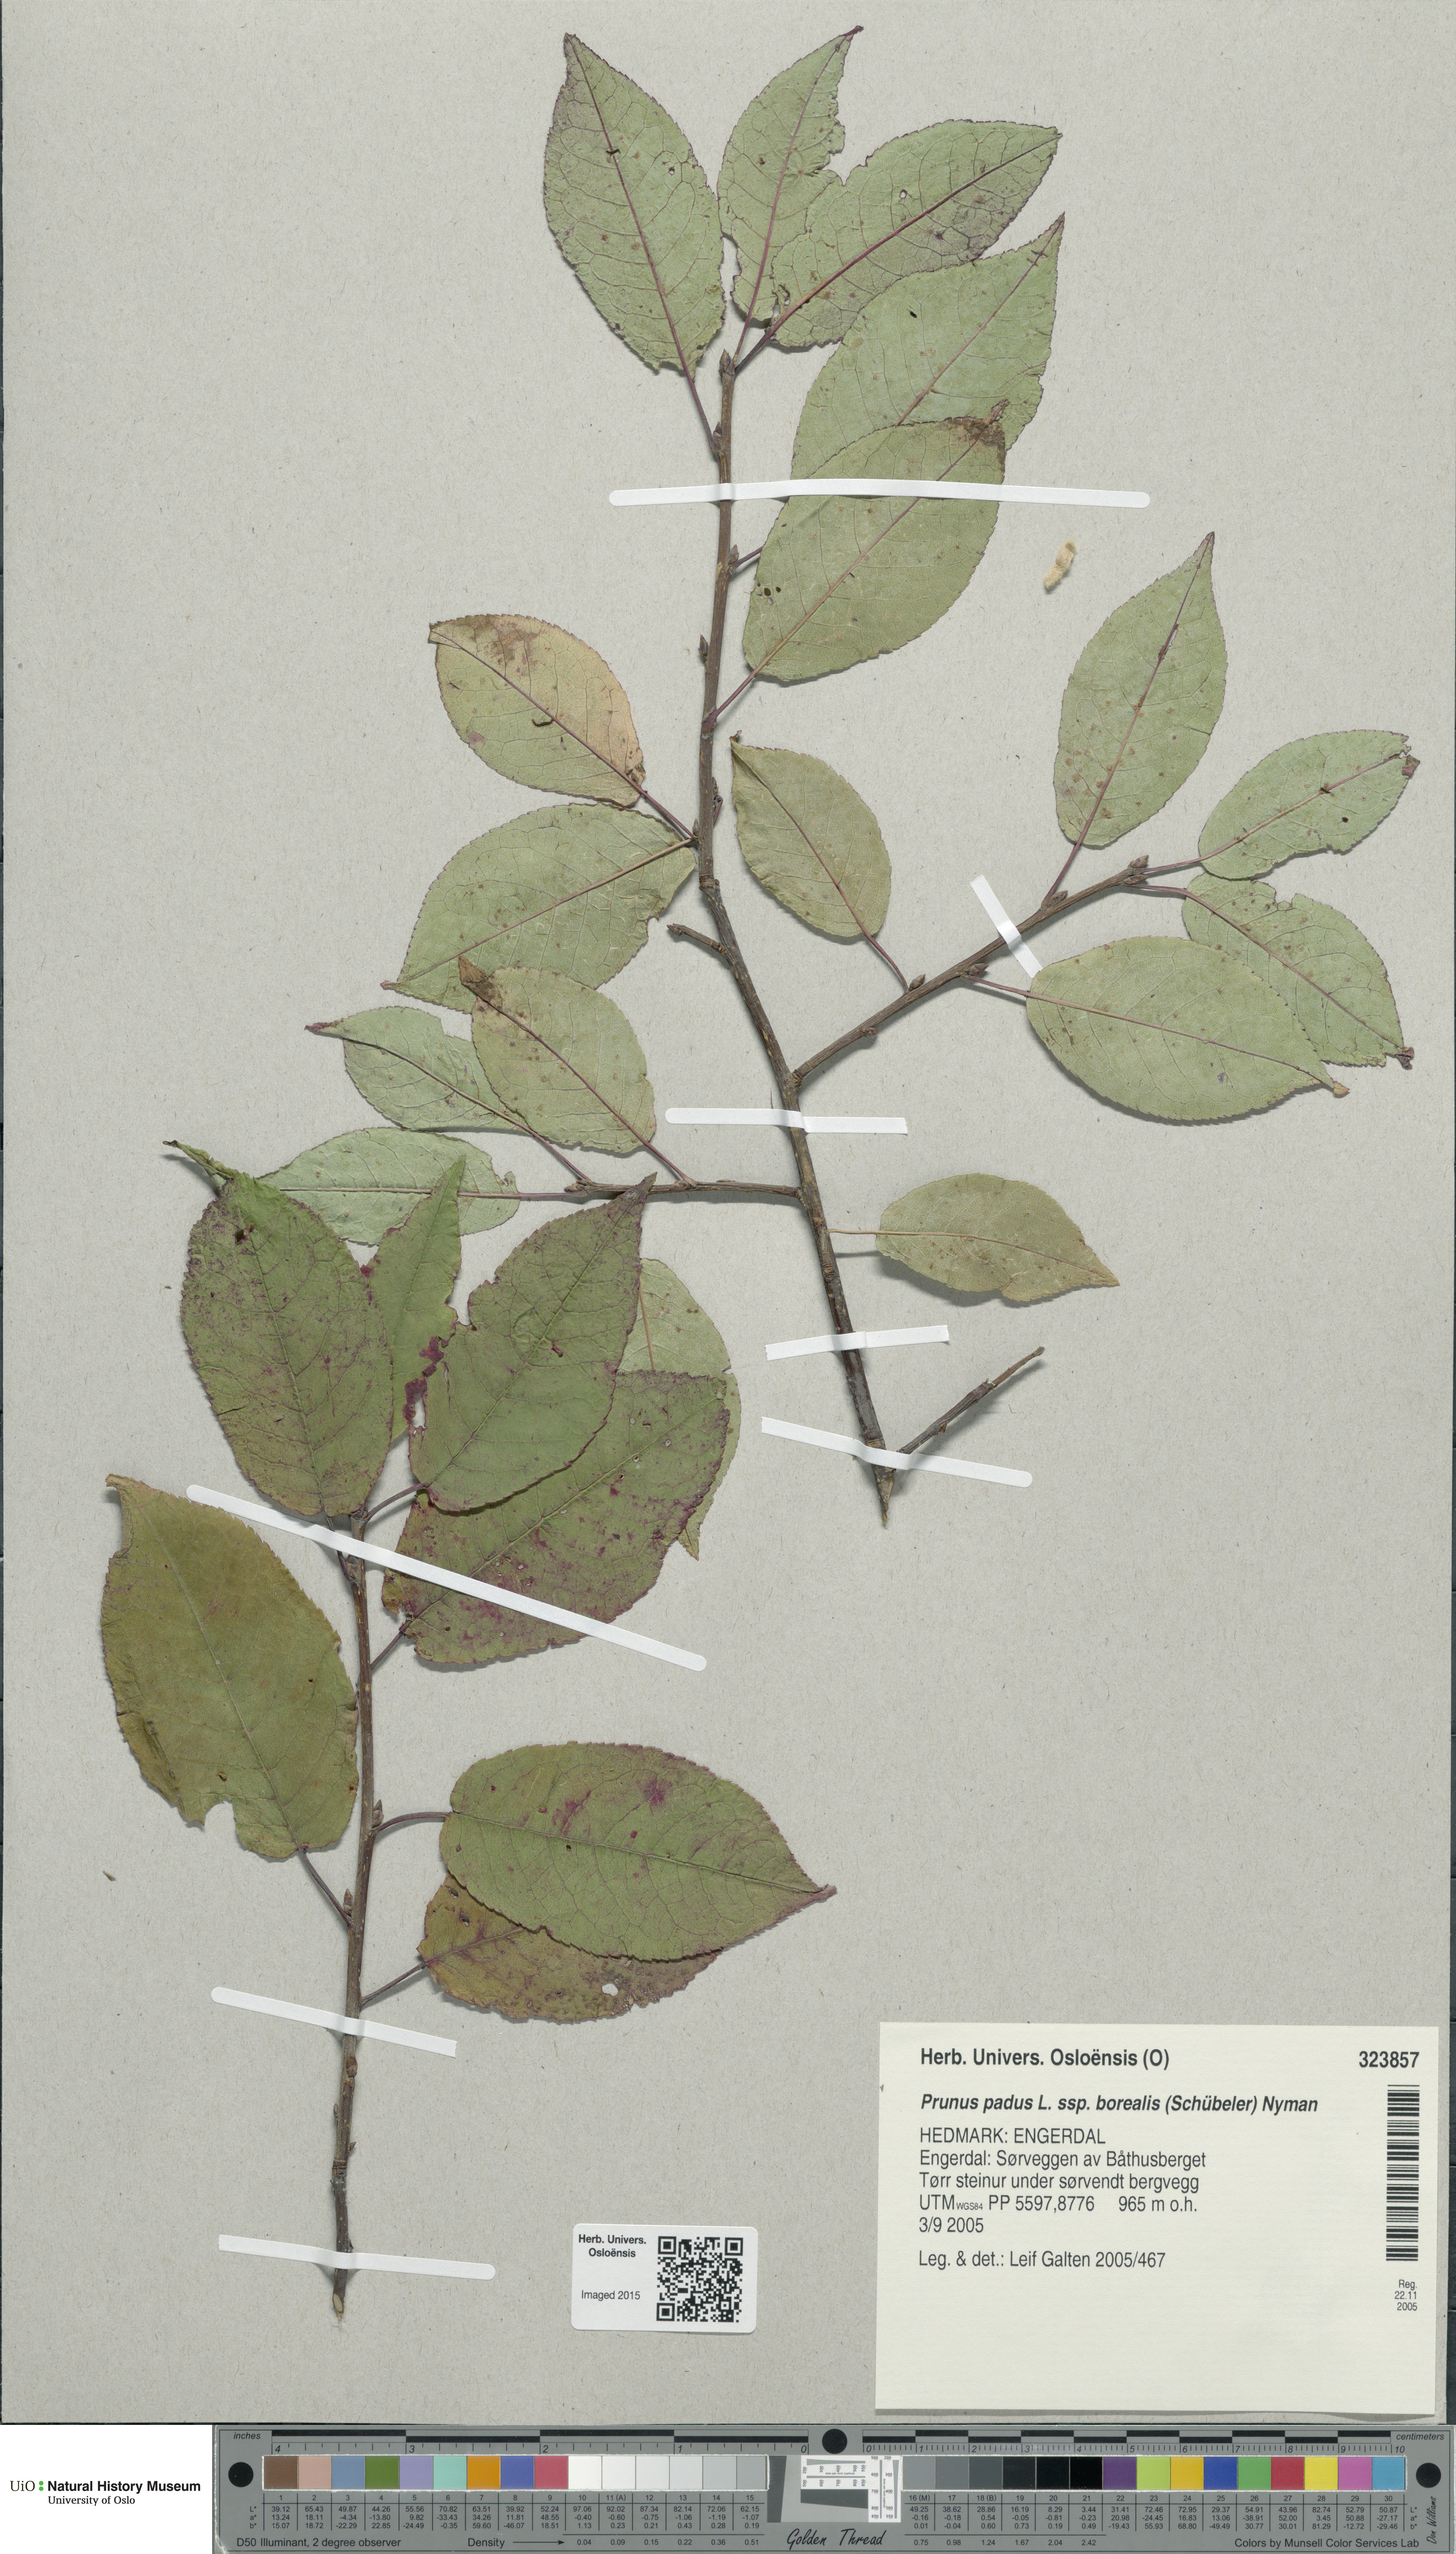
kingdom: Plantae
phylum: Tracheophyta
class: Magnoliopsida
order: Rosales
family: Rosaceae
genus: Prunus
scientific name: Prunus padus
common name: Bird cherry
